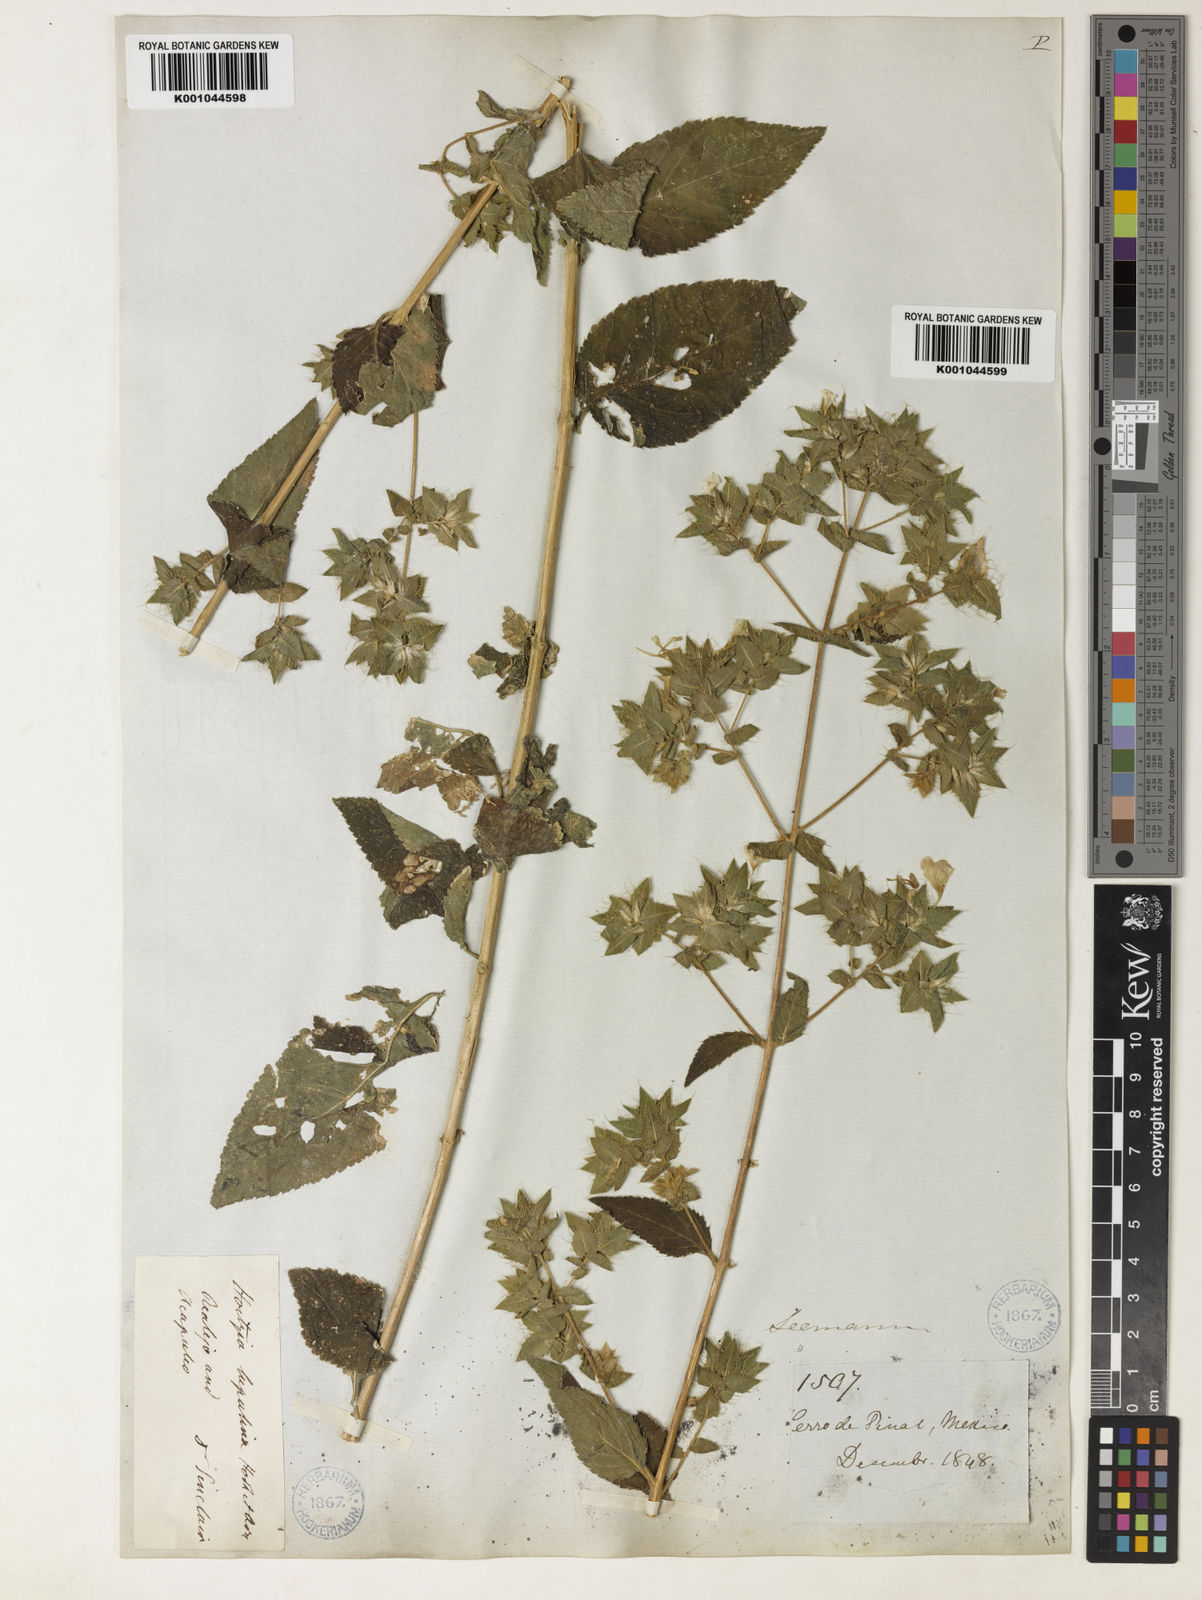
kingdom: Plantae
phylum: Tracheophyta
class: Magnoliopsida
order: Ericales
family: Polemoniaceae
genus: Loeselia
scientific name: Loeselia ciliata
